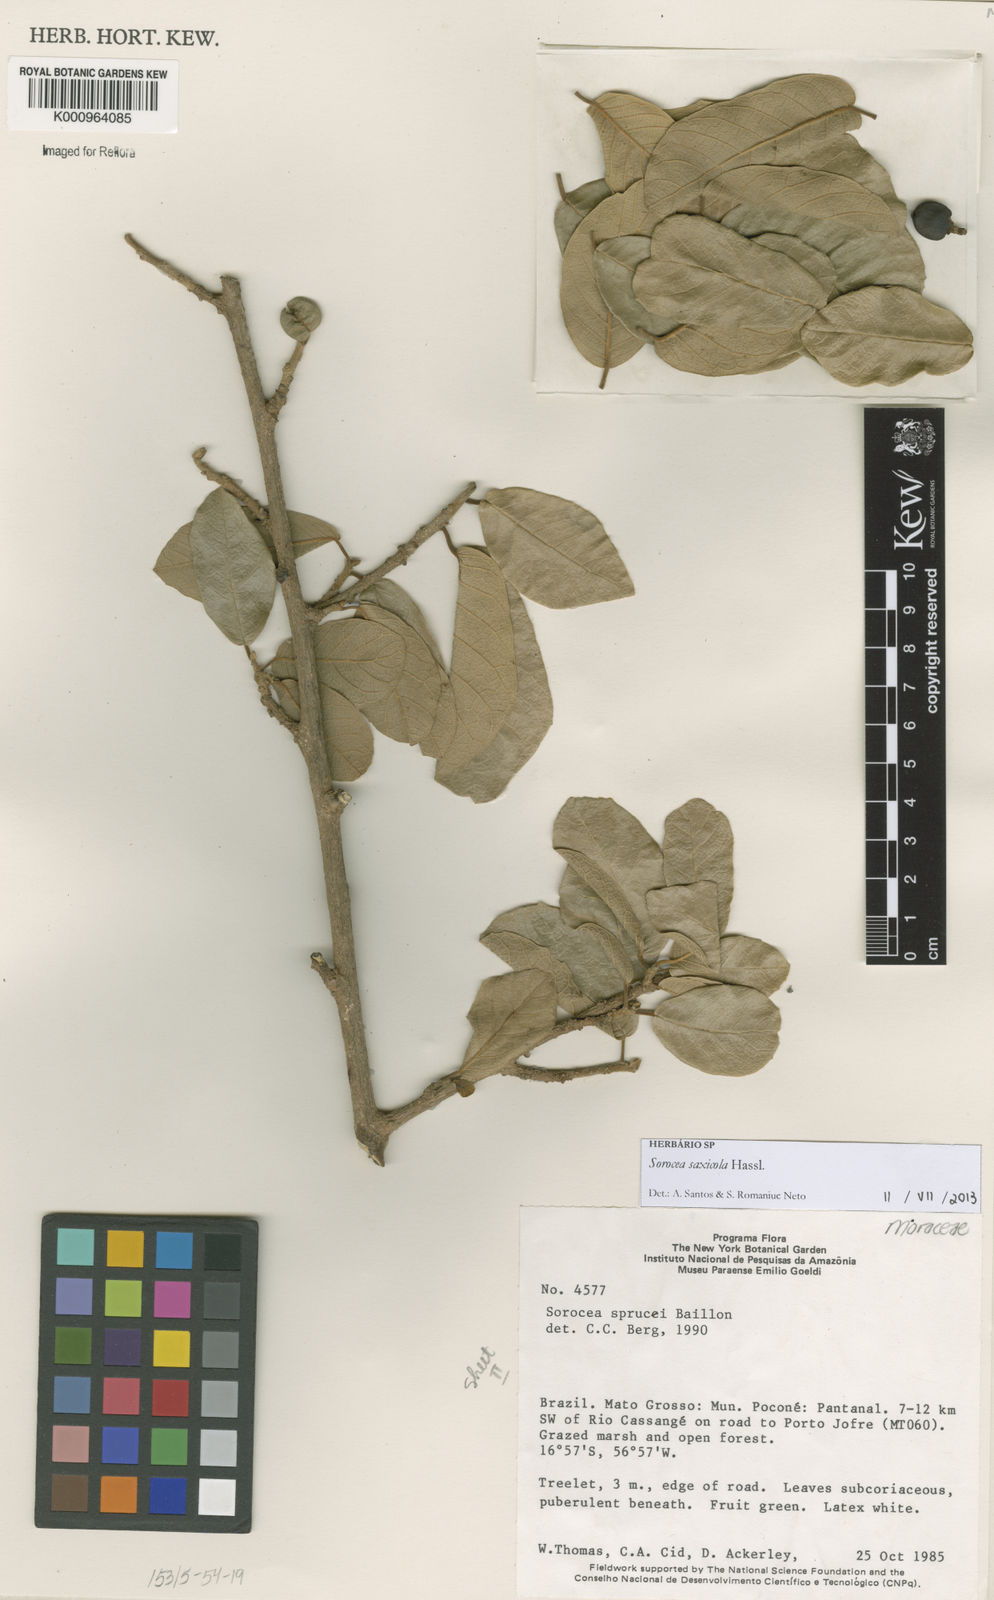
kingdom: Plantae
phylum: Tracheophyta
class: Magnoliopsida
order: Rosales
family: Moraceae
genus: Sorocea
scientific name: Sorocea sprucei
